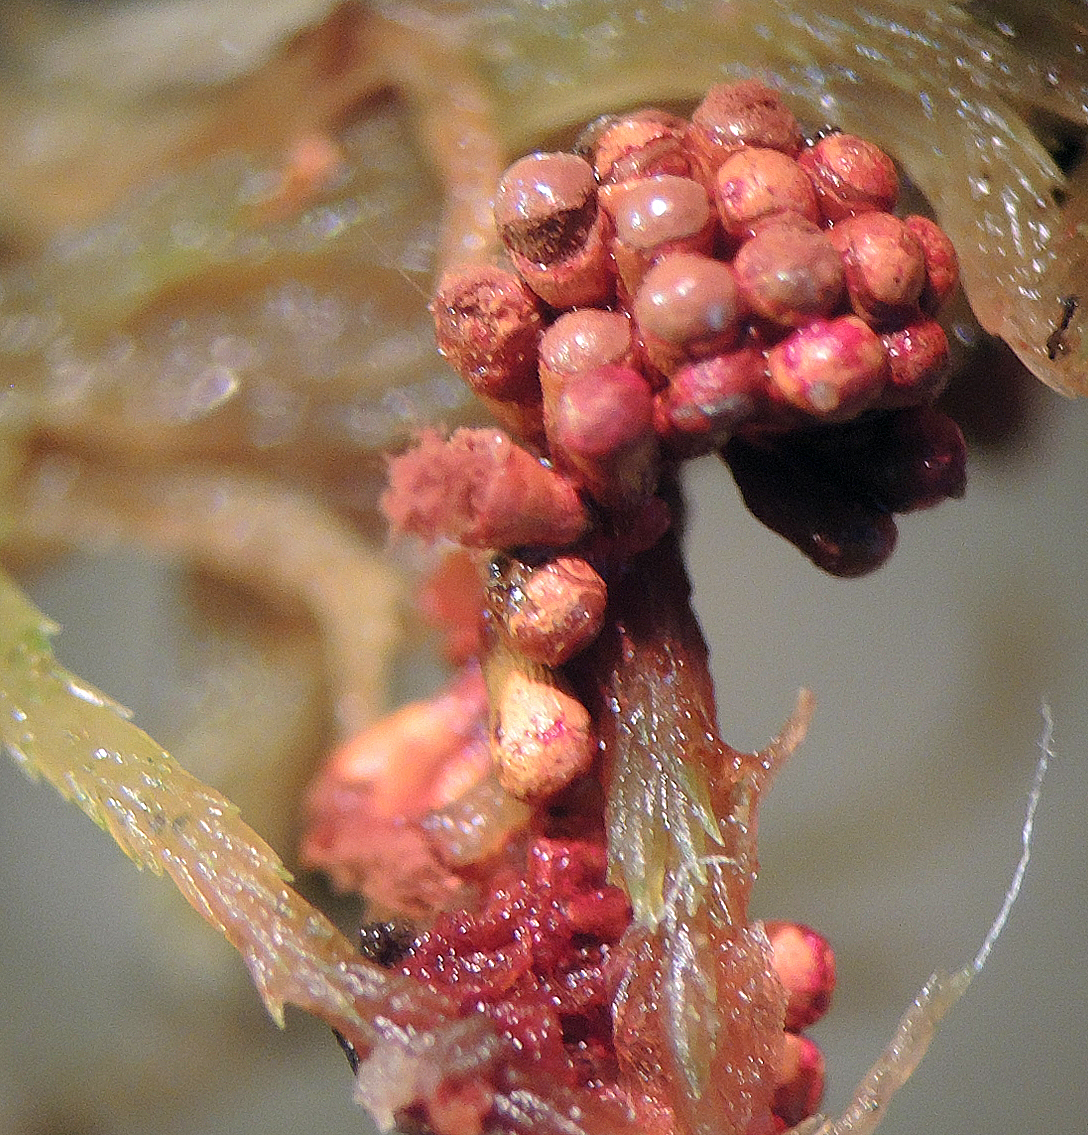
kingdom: Protozoa
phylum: Mycetozoa
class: Myxomycetes
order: Trichiales
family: Trichiaceae
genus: Metatrichia
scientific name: Metatrichia vesparia
